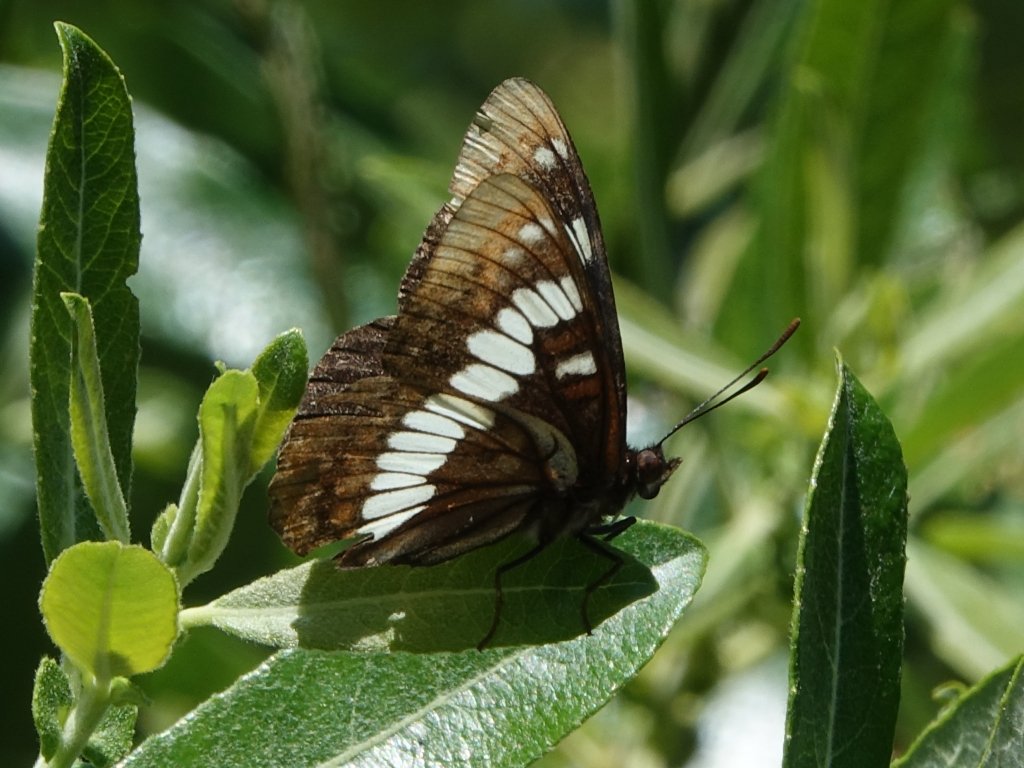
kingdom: Animalia
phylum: Arthropoda
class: Insecta
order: Lepidoptera
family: Nymphalidae
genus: Limenitis
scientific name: Limenitis lorquini
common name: Lorquin's Admiral
